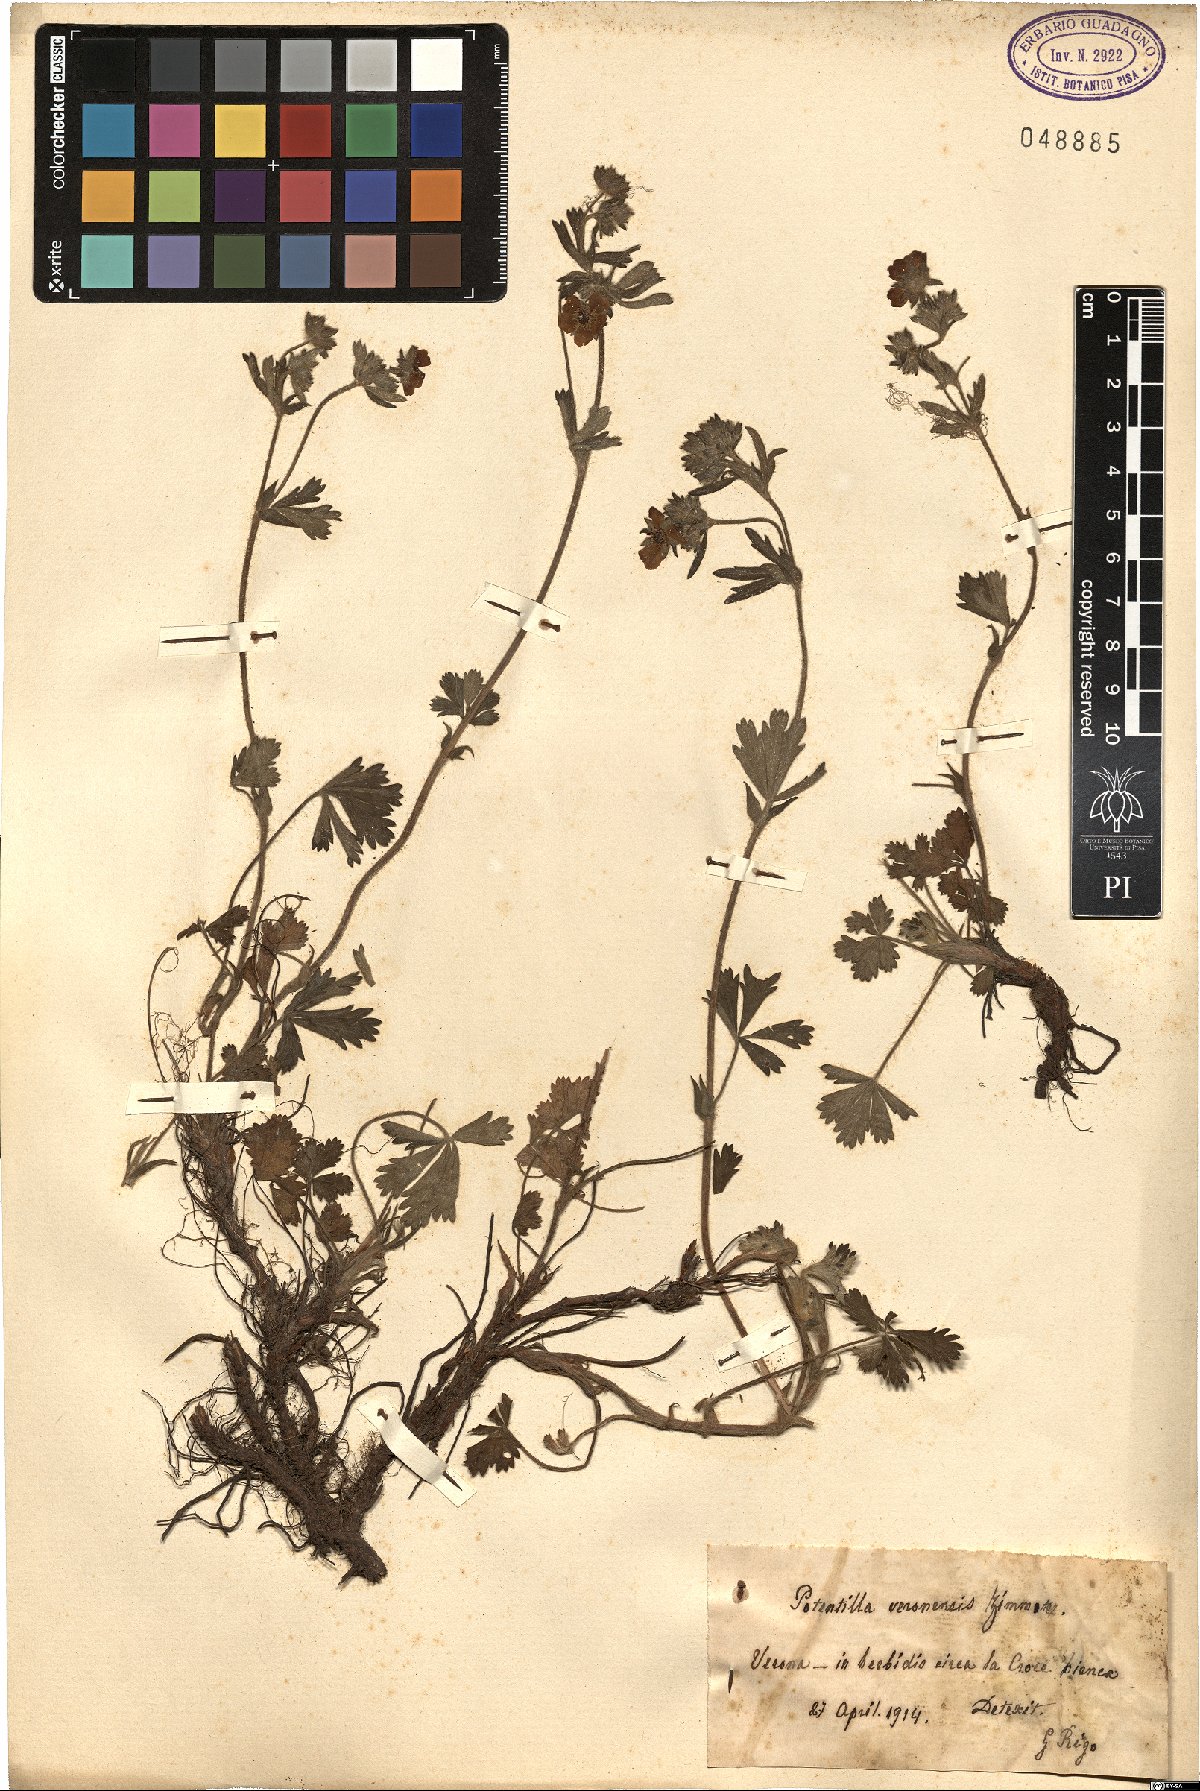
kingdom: Plantae
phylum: Tracheophyta
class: Magnoliopsida
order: Rosales
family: Rosaceae
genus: Potentilla
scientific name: Potentilla veronensis
